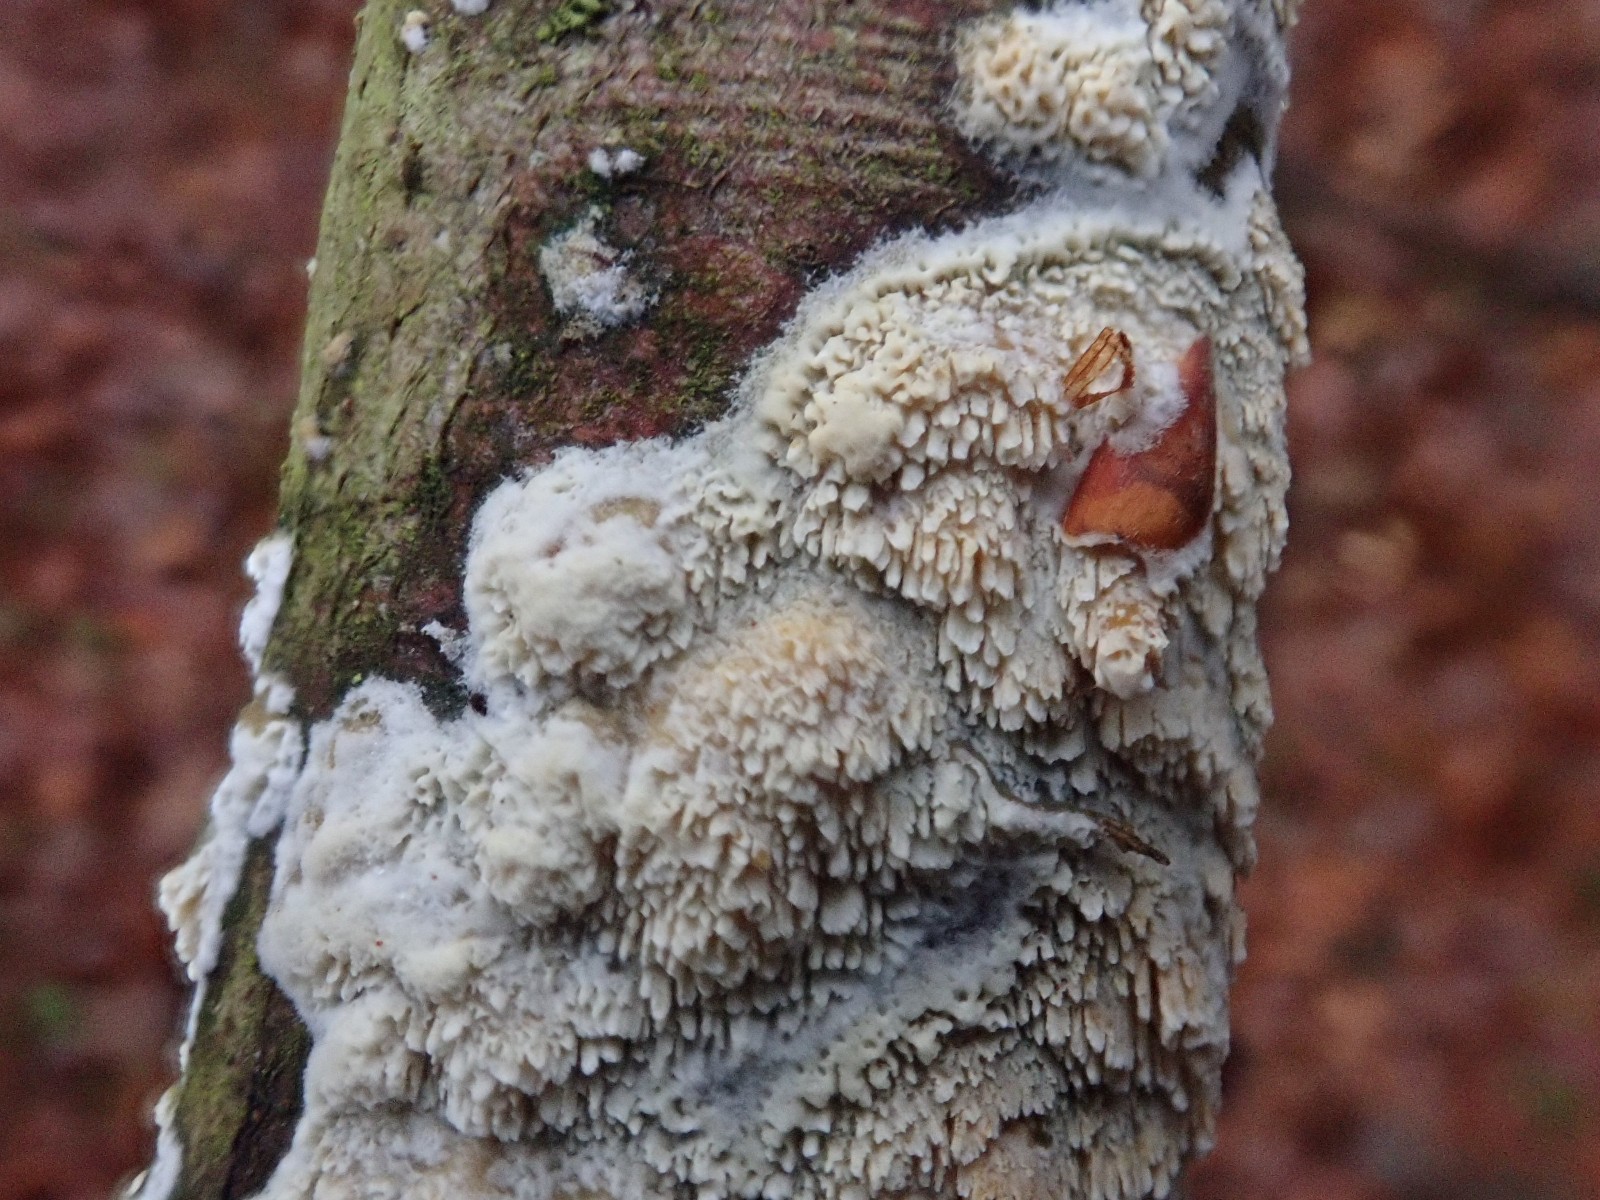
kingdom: Fungi
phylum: Basidiomycota
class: Agaricomycetes
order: Hymenochaetales
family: Schizoporaceae
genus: Schizopora
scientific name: Schizopora paradoxa
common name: hvid tandsvamp
